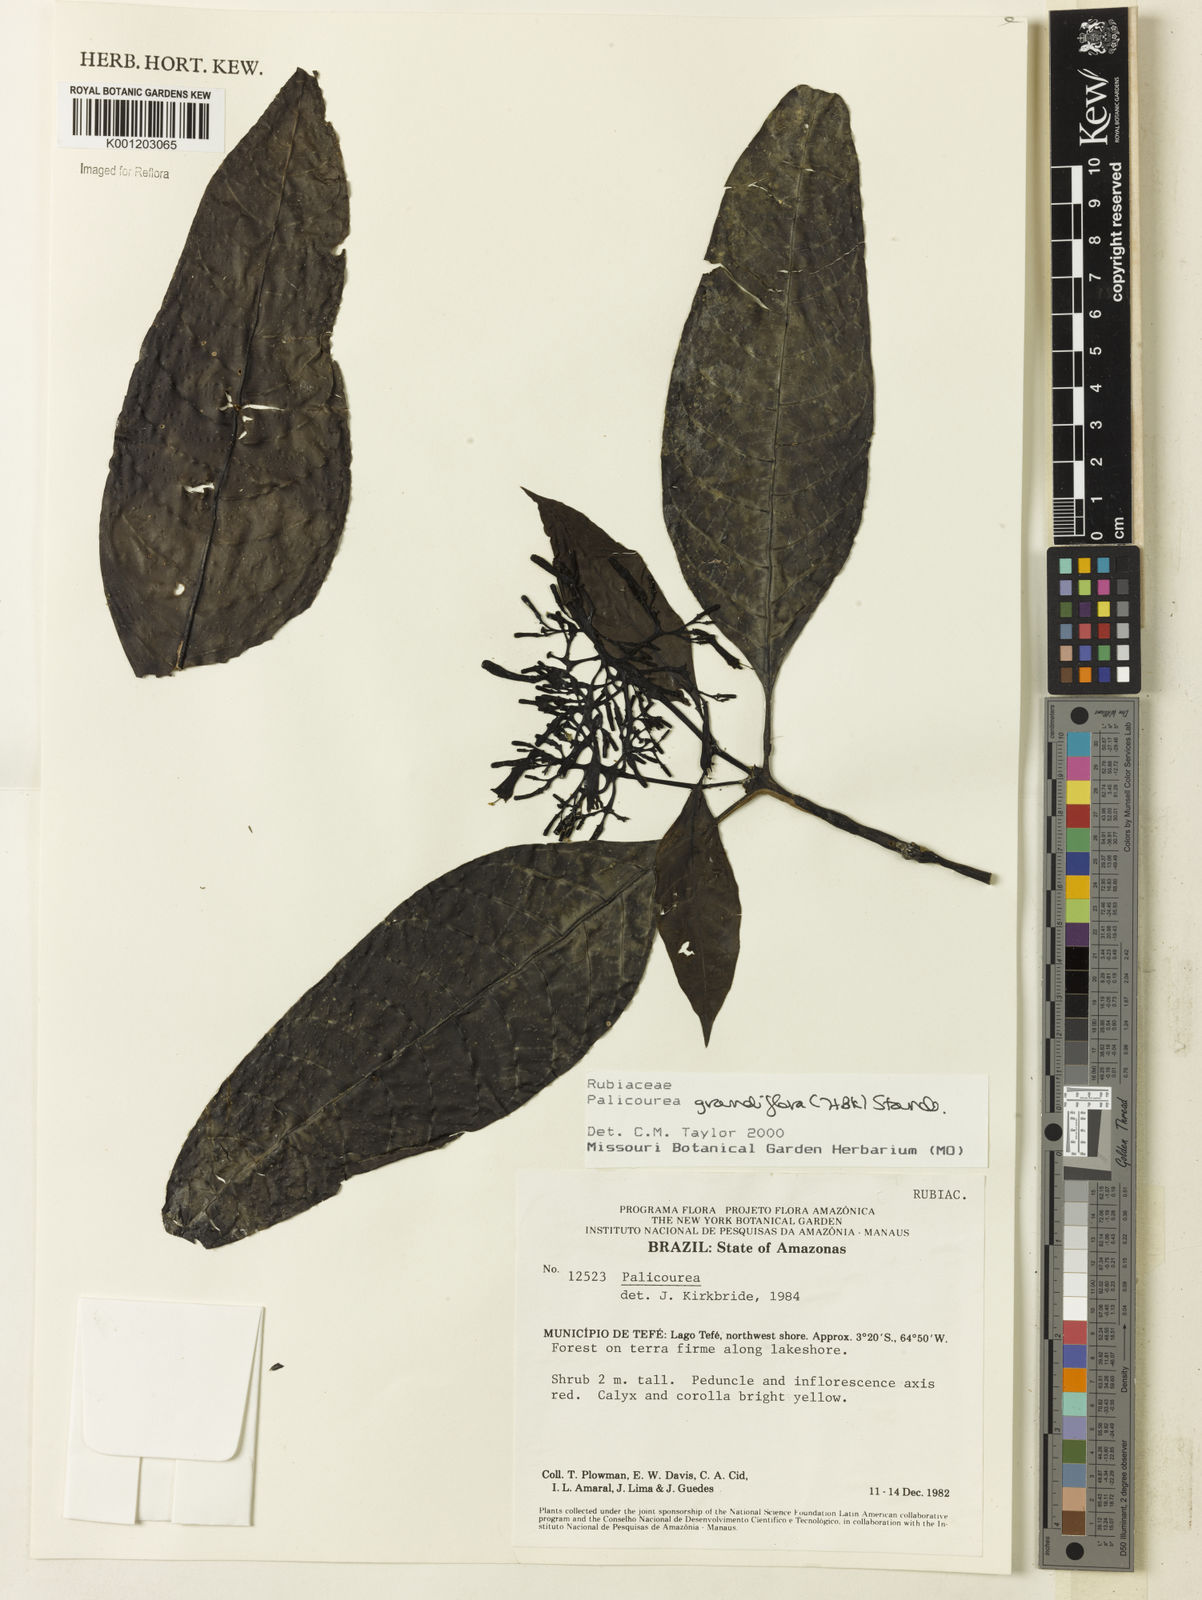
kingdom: Plantae
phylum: Tracheophyta
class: Magnoliopsida
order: Gentianales
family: Rubiaceae
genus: Palicourea
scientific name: Palicourea grandiflora
